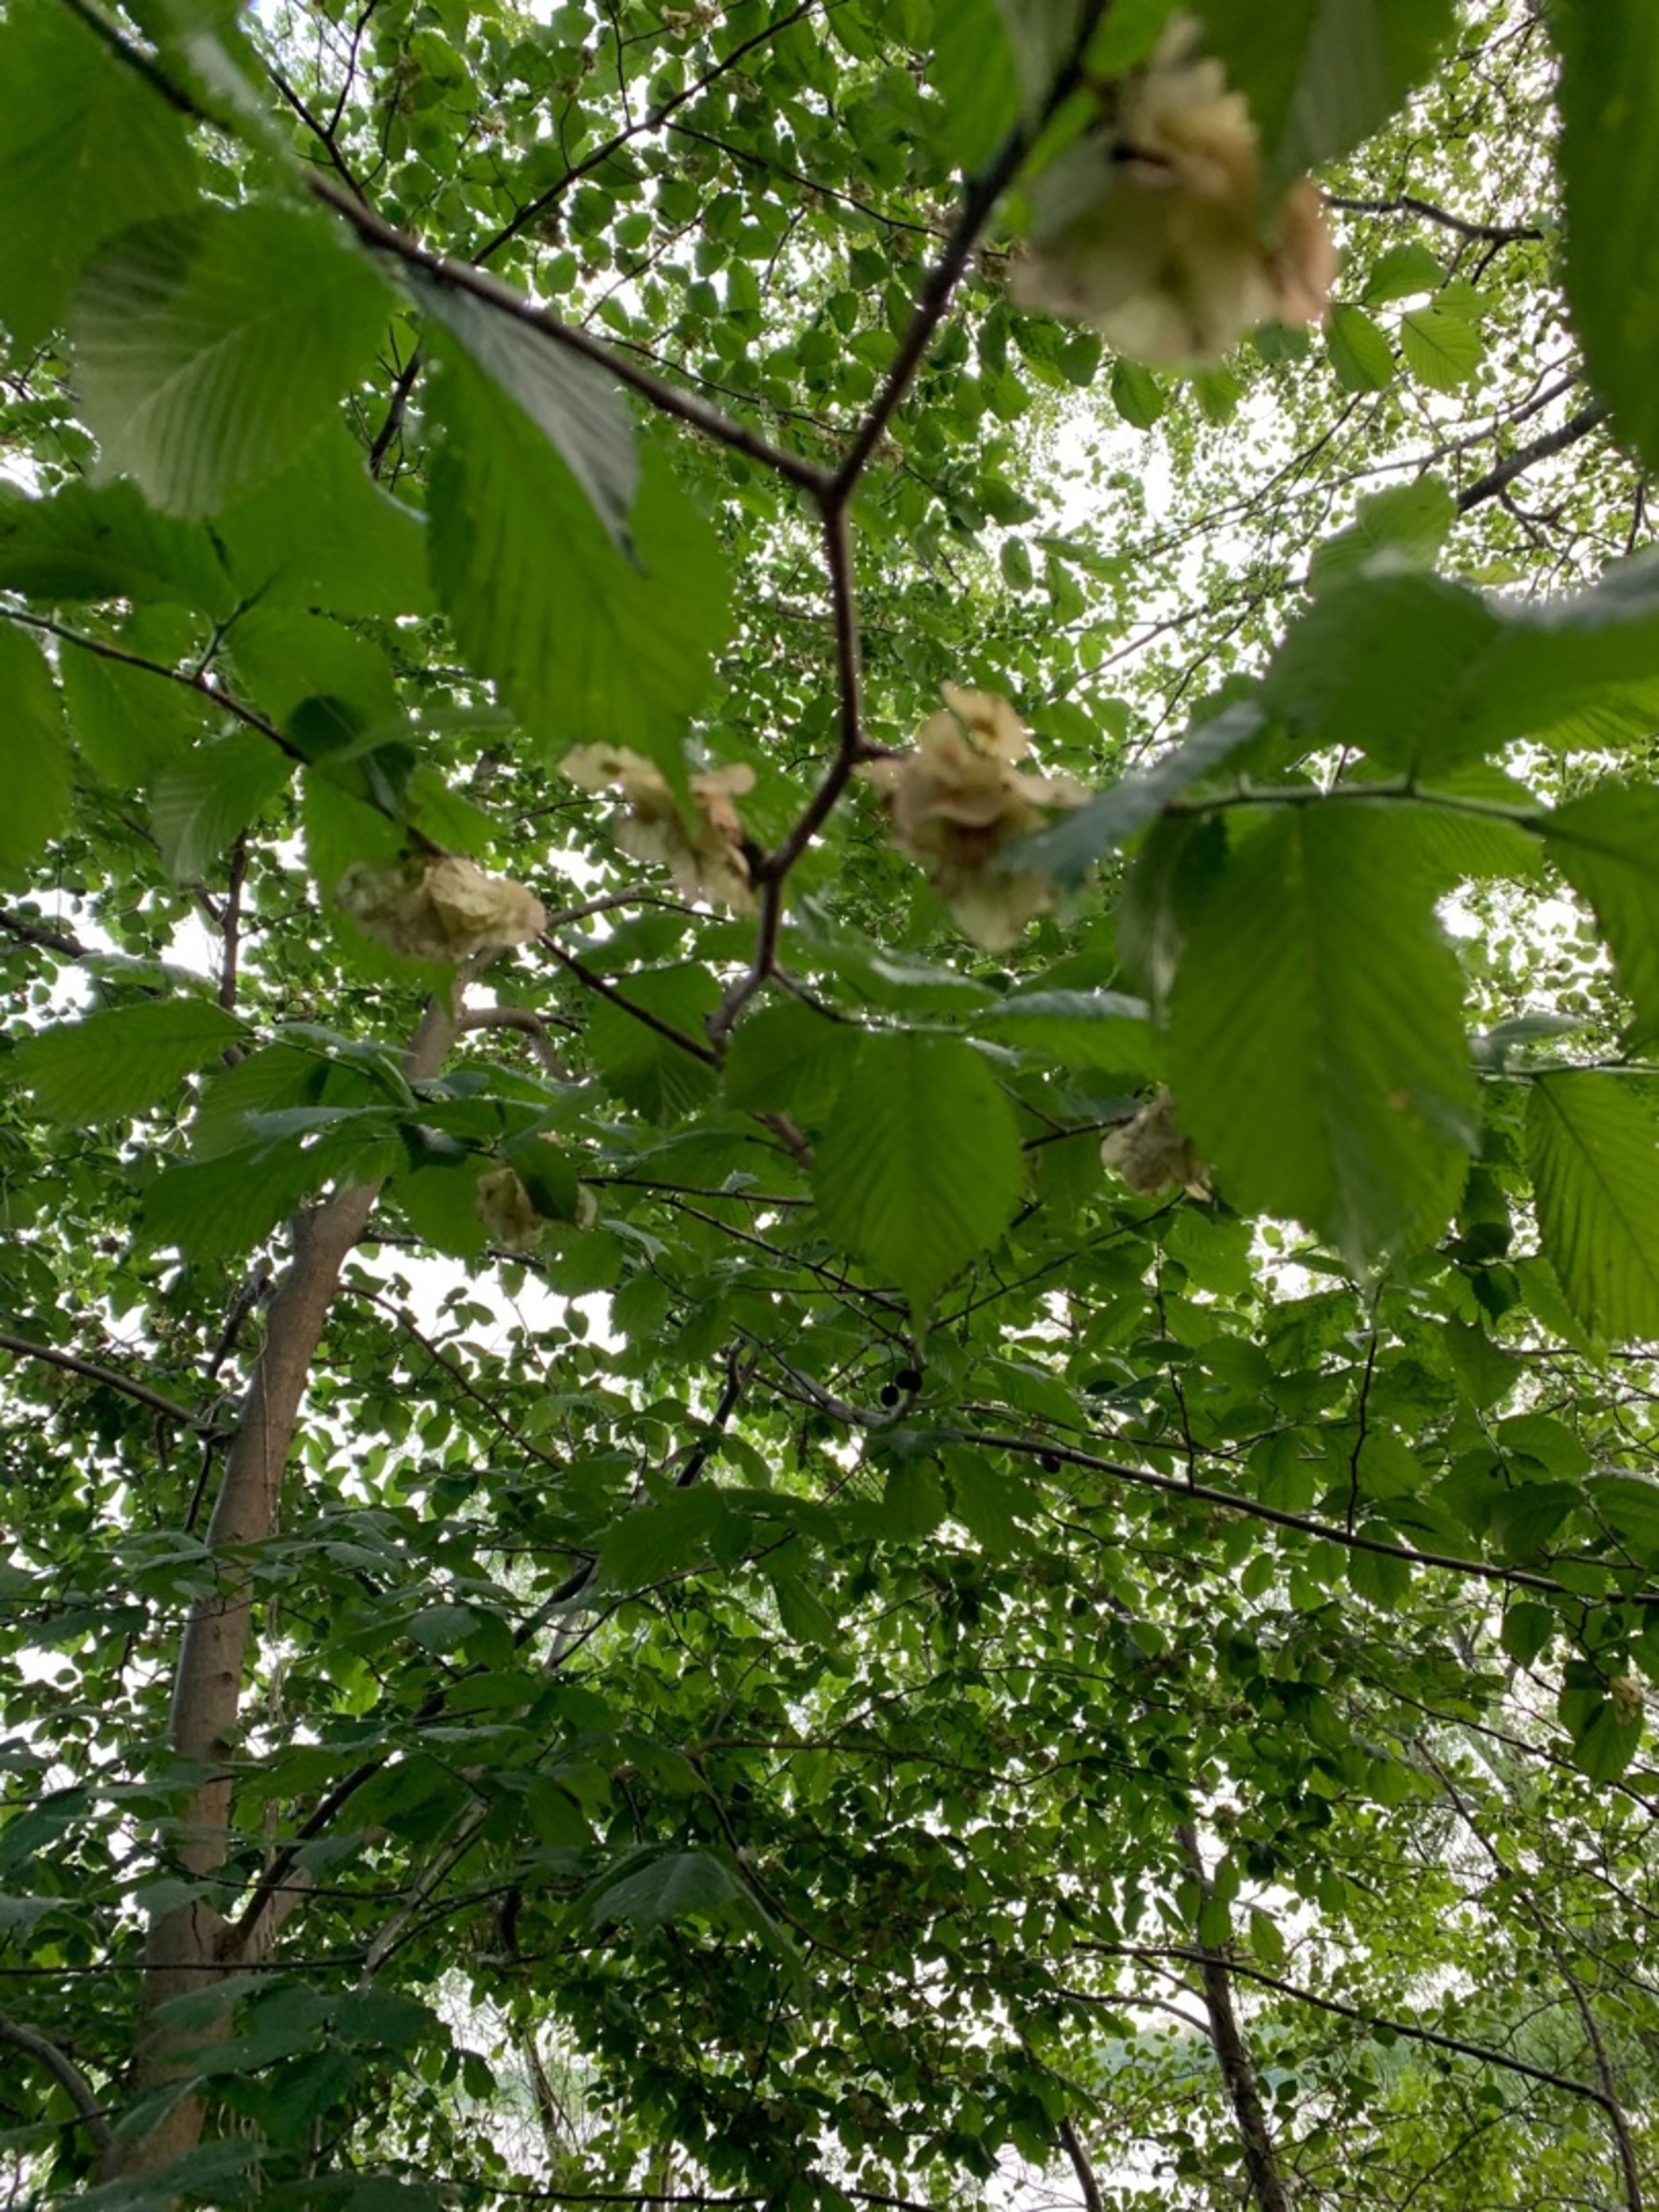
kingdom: Plantae
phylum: Tracheophyta
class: Magnoliopsida
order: Rosales
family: Ulmaceae
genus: Ulmus
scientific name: Ulmus glabra
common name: Skov-elm/storbladet elm
